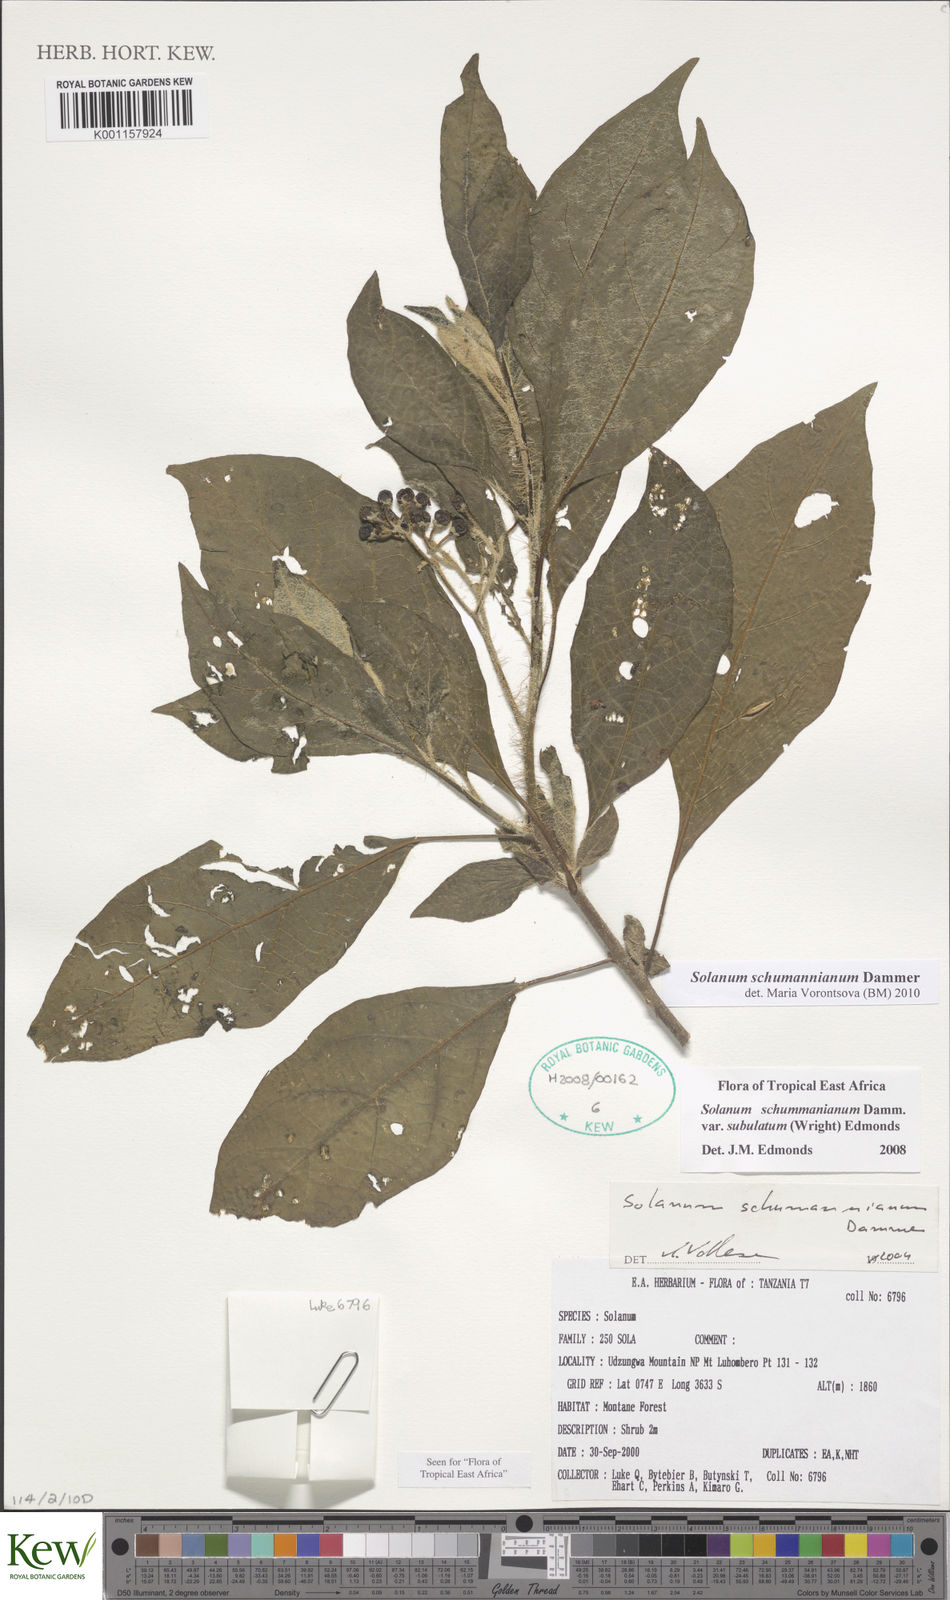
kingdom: Plantae
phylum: Tracheophyta
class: Magnoliopsida
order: Solanales
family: Solanaceae
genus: Solanum
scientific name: Solanum schumannianum
